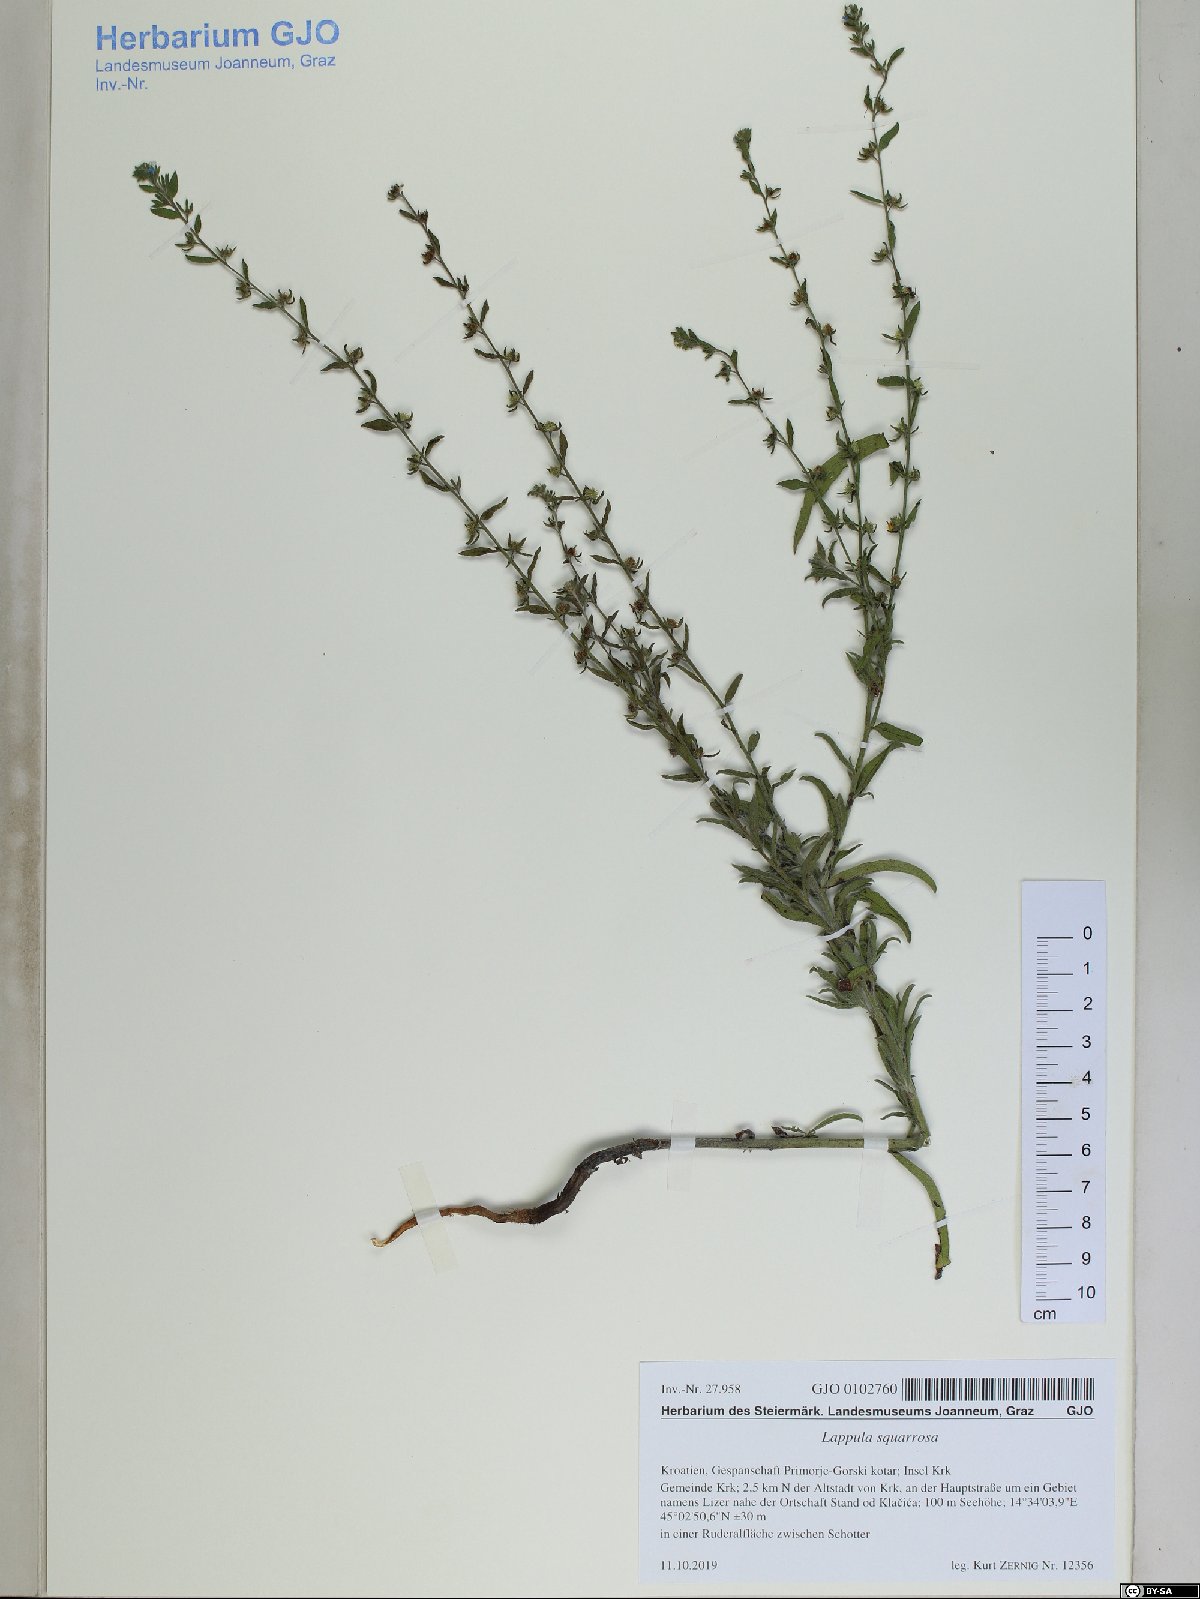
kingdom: Plantae
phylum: Tracheophyta
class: Magnoliopsida
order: Boraginales
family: Boraginaceae
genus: Lappula
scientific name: Lappula squarrosa
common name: European stickseed
